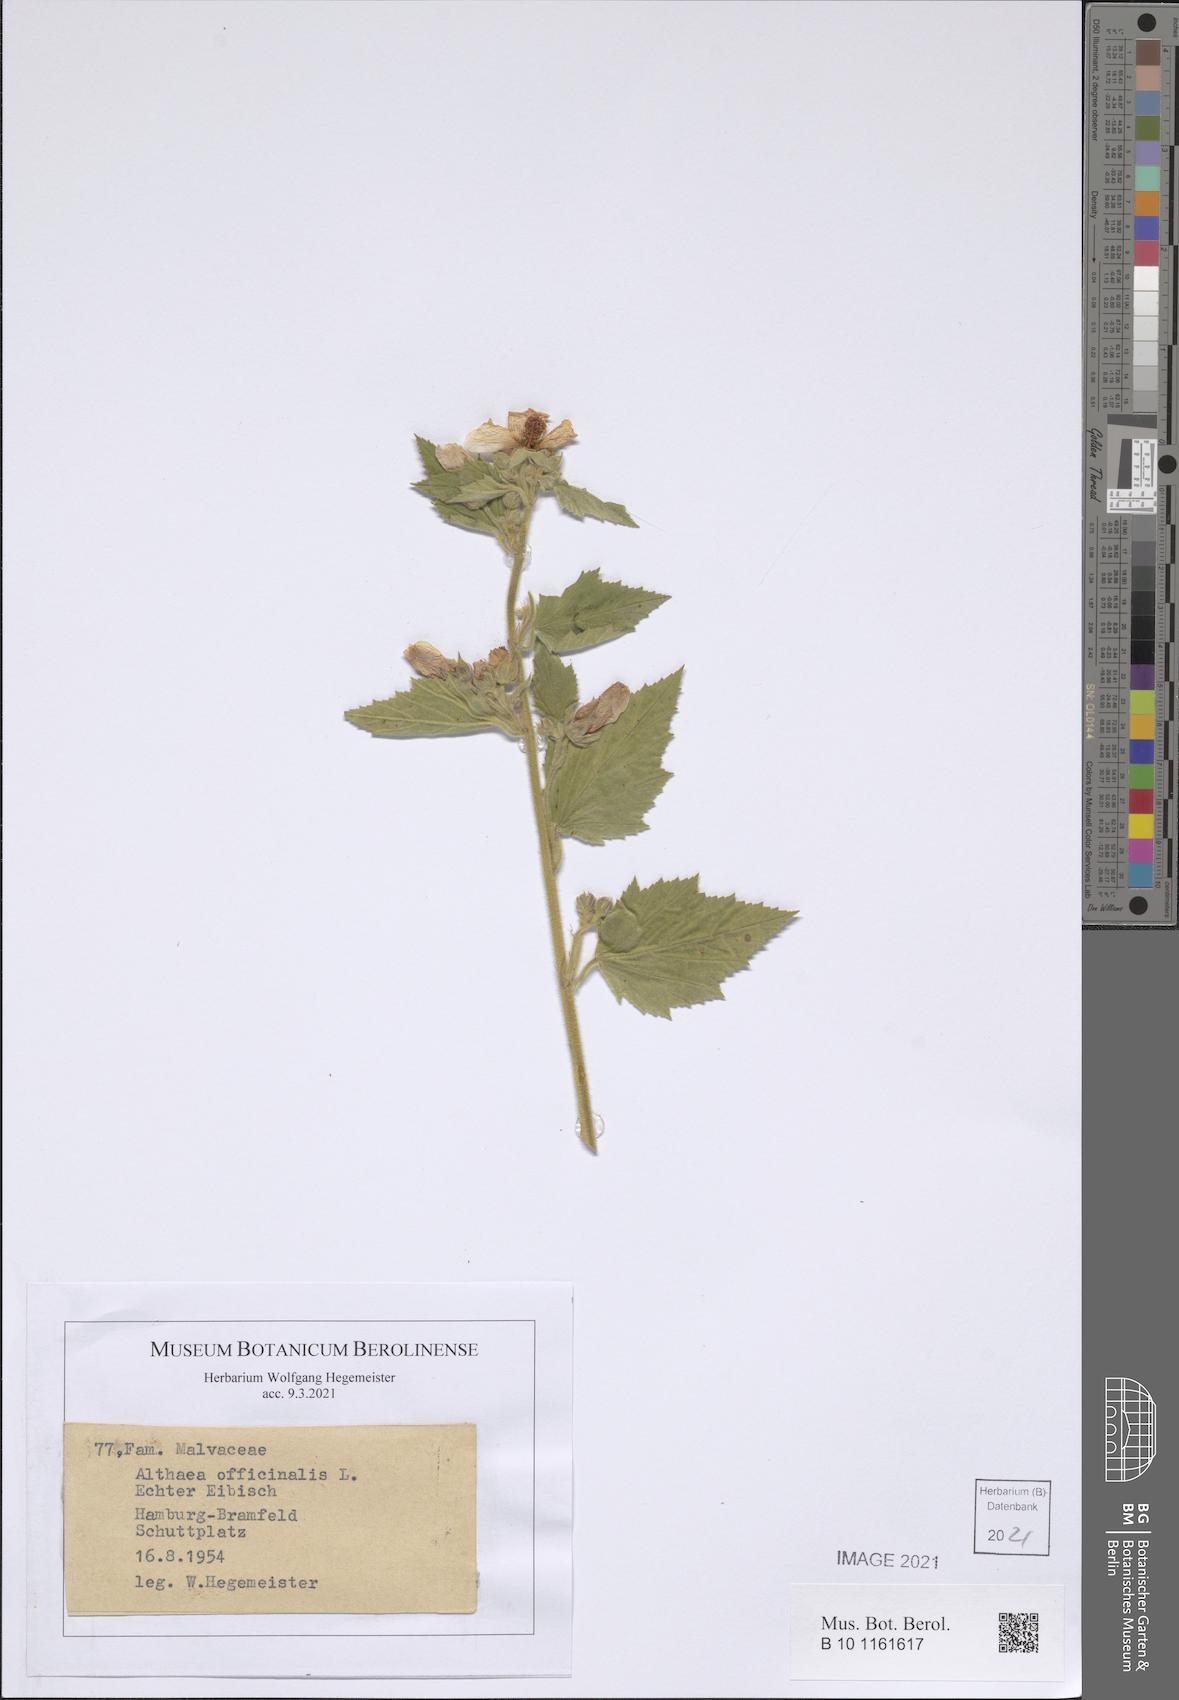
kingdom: Plantae
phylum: Tracheophyta
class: Magnoliopsida
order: Malvales
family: Malvaceae
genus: Althaea
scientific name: Althaea officinalis
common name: Marsh-mallow
